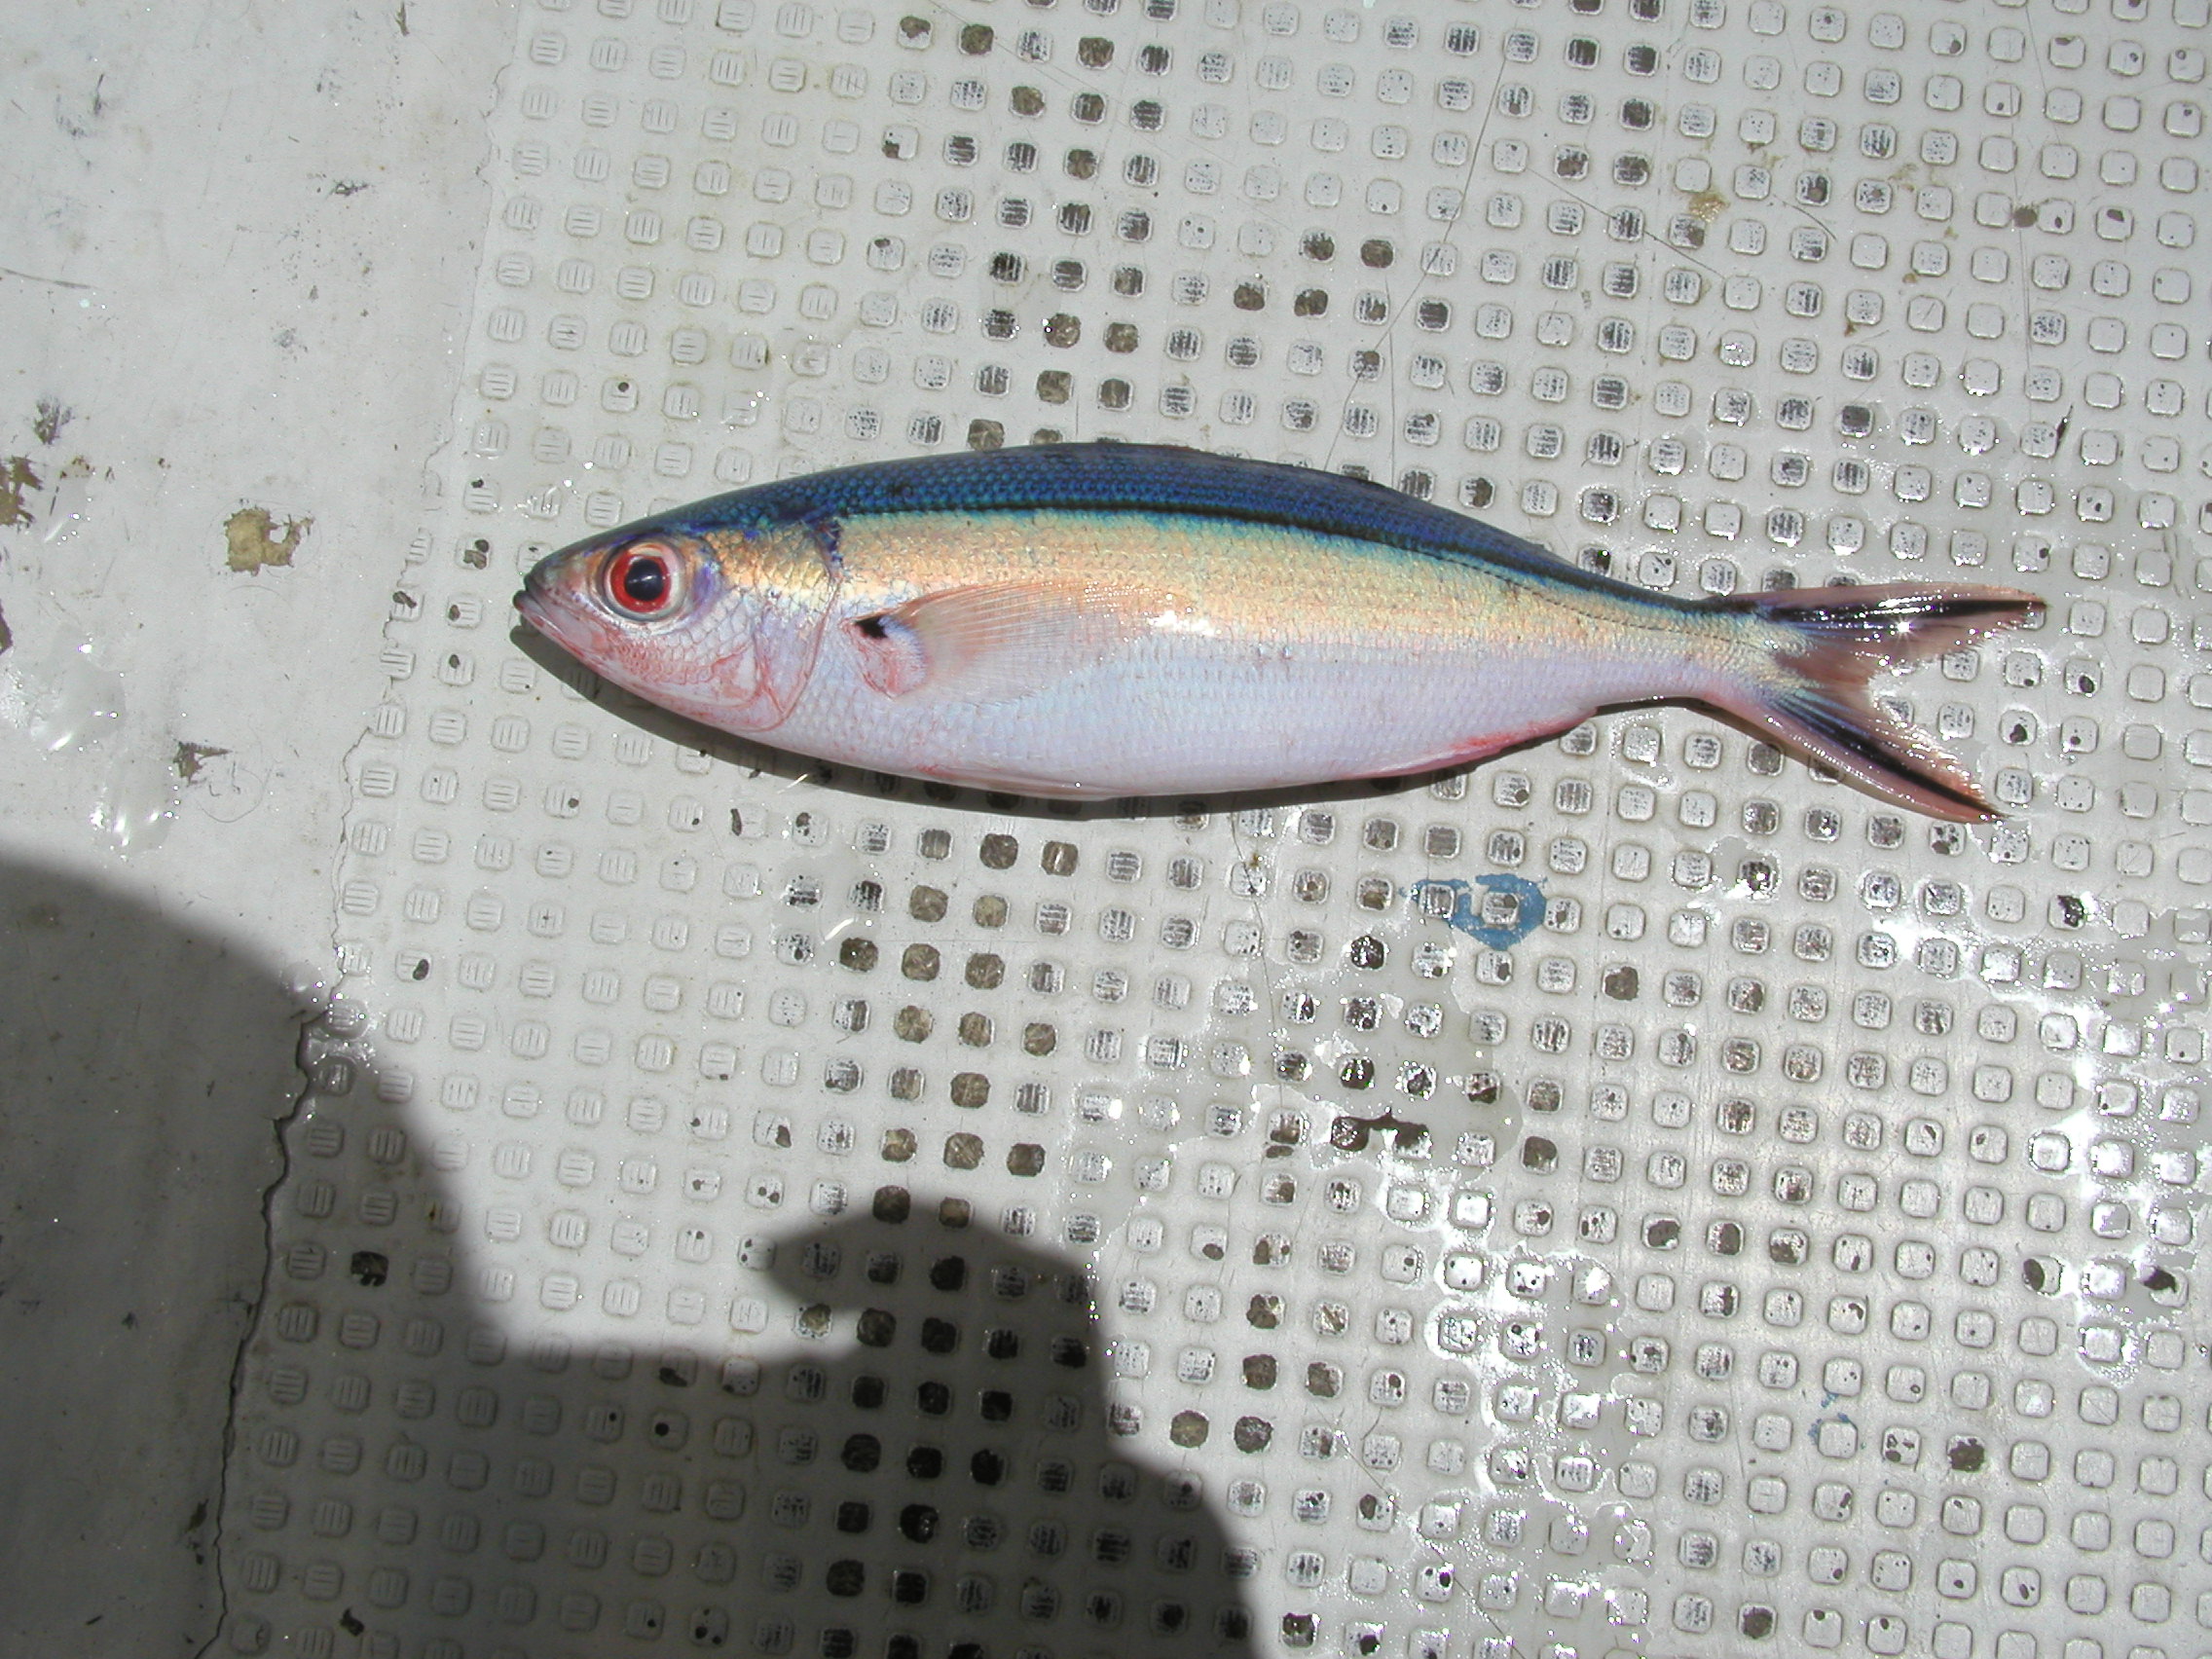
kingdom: Animalia
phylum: Chordata
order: Perciformes
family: Caesionidae
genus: Pterocaesio
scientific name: Pterocaesio tile
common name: Dark-banded fusilier
